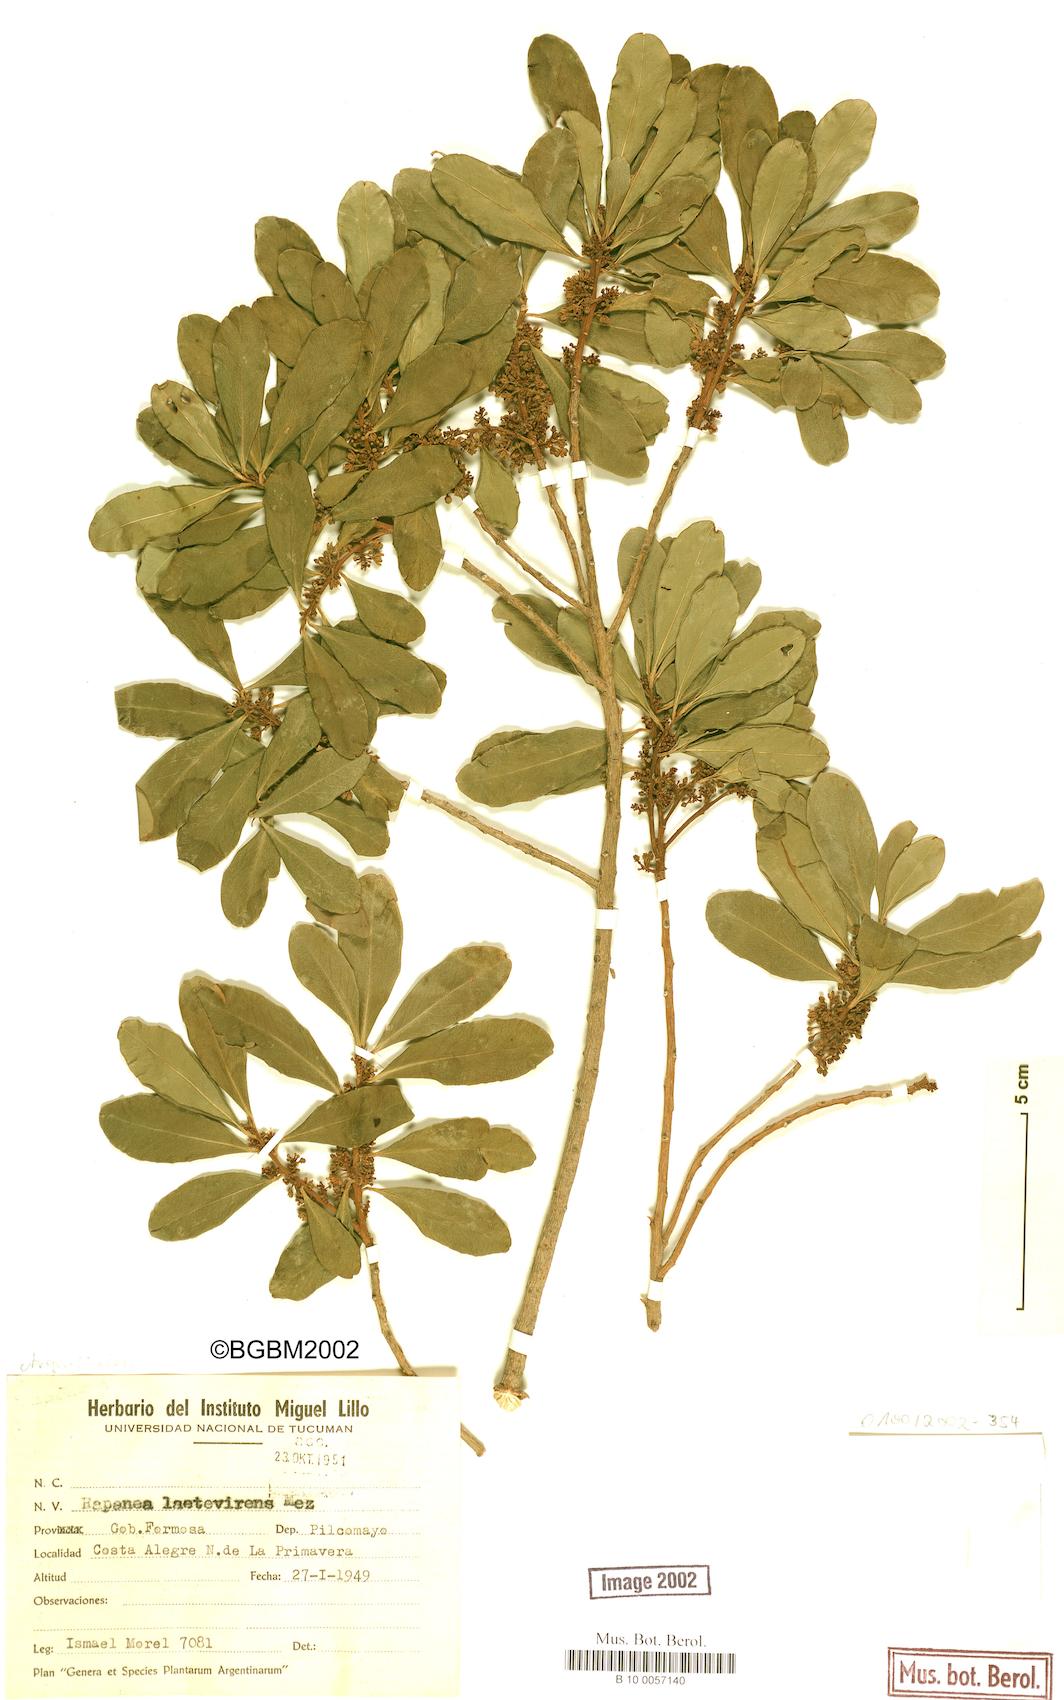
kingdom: Plantae
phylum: Tracheophyta
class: Magnoliopsida
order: Ericales
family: Primulaceae
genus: Myrsine
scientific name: Myrsine laetevirens
